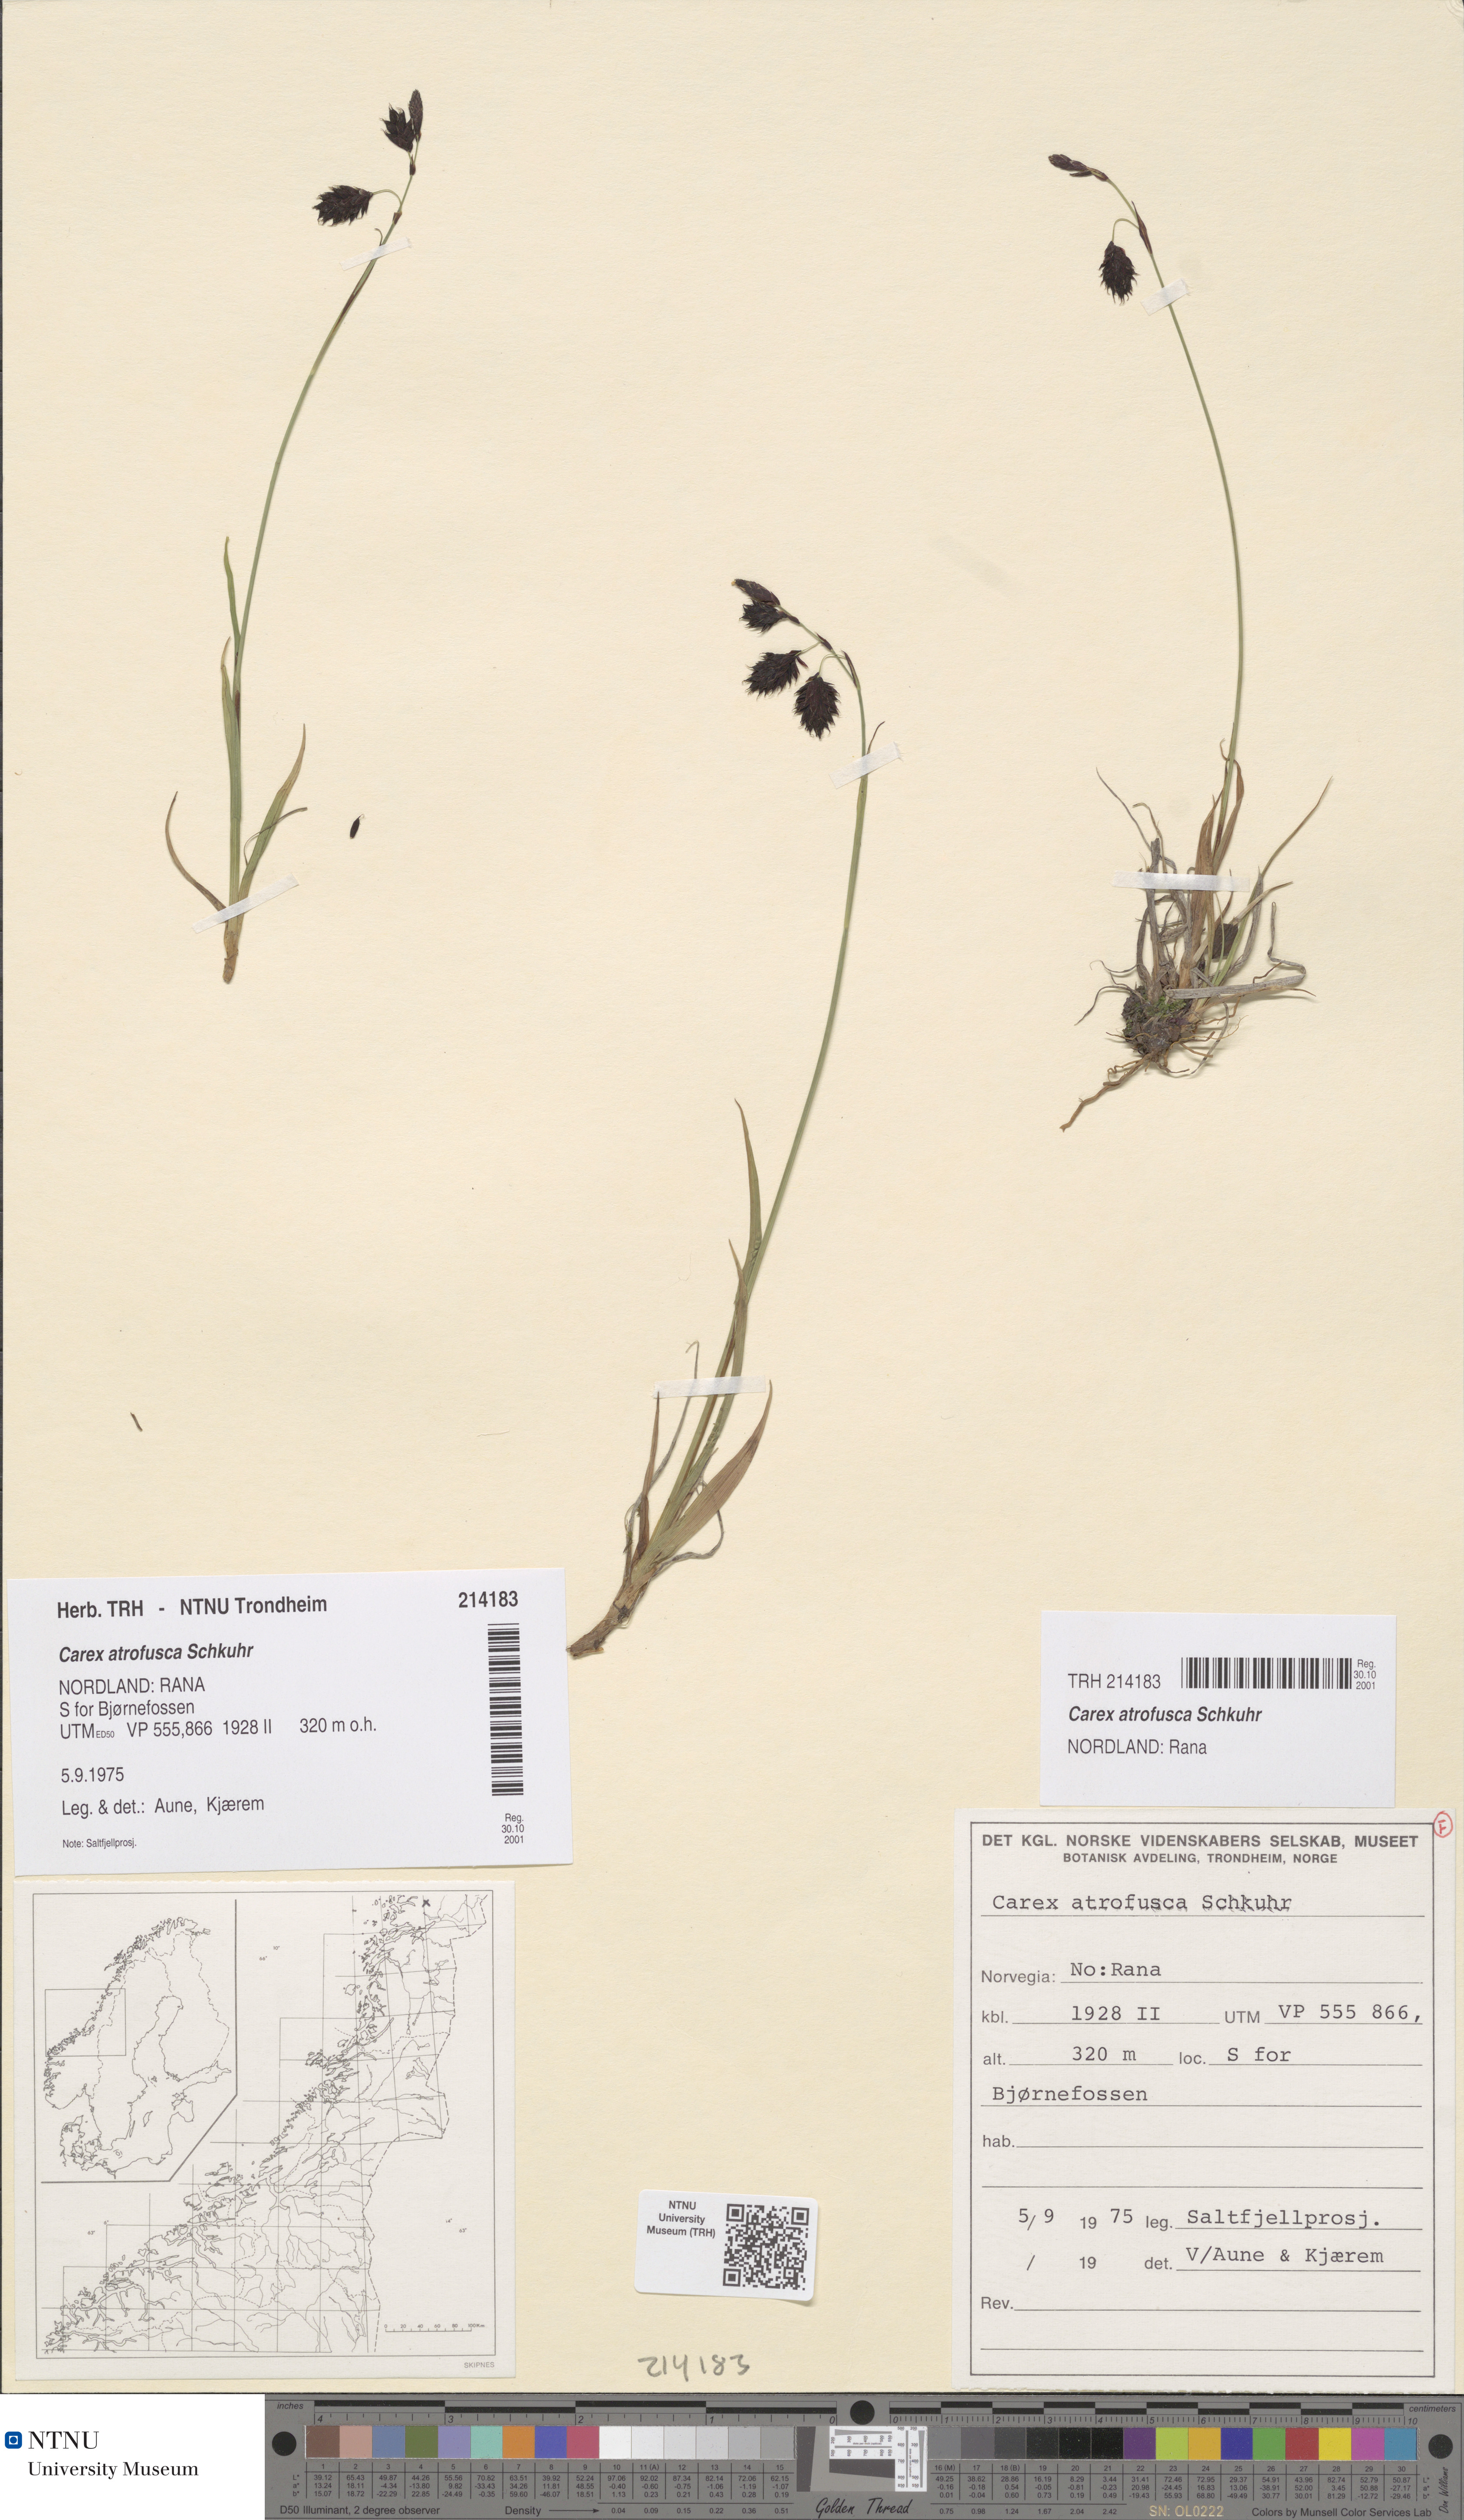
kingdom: Plantae
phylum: Tracheophyta
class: Liliopsida
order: Poales
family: Cyperaceae
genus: Carex
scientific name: Carex atrofusca
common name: Scorched alpine-sedge
